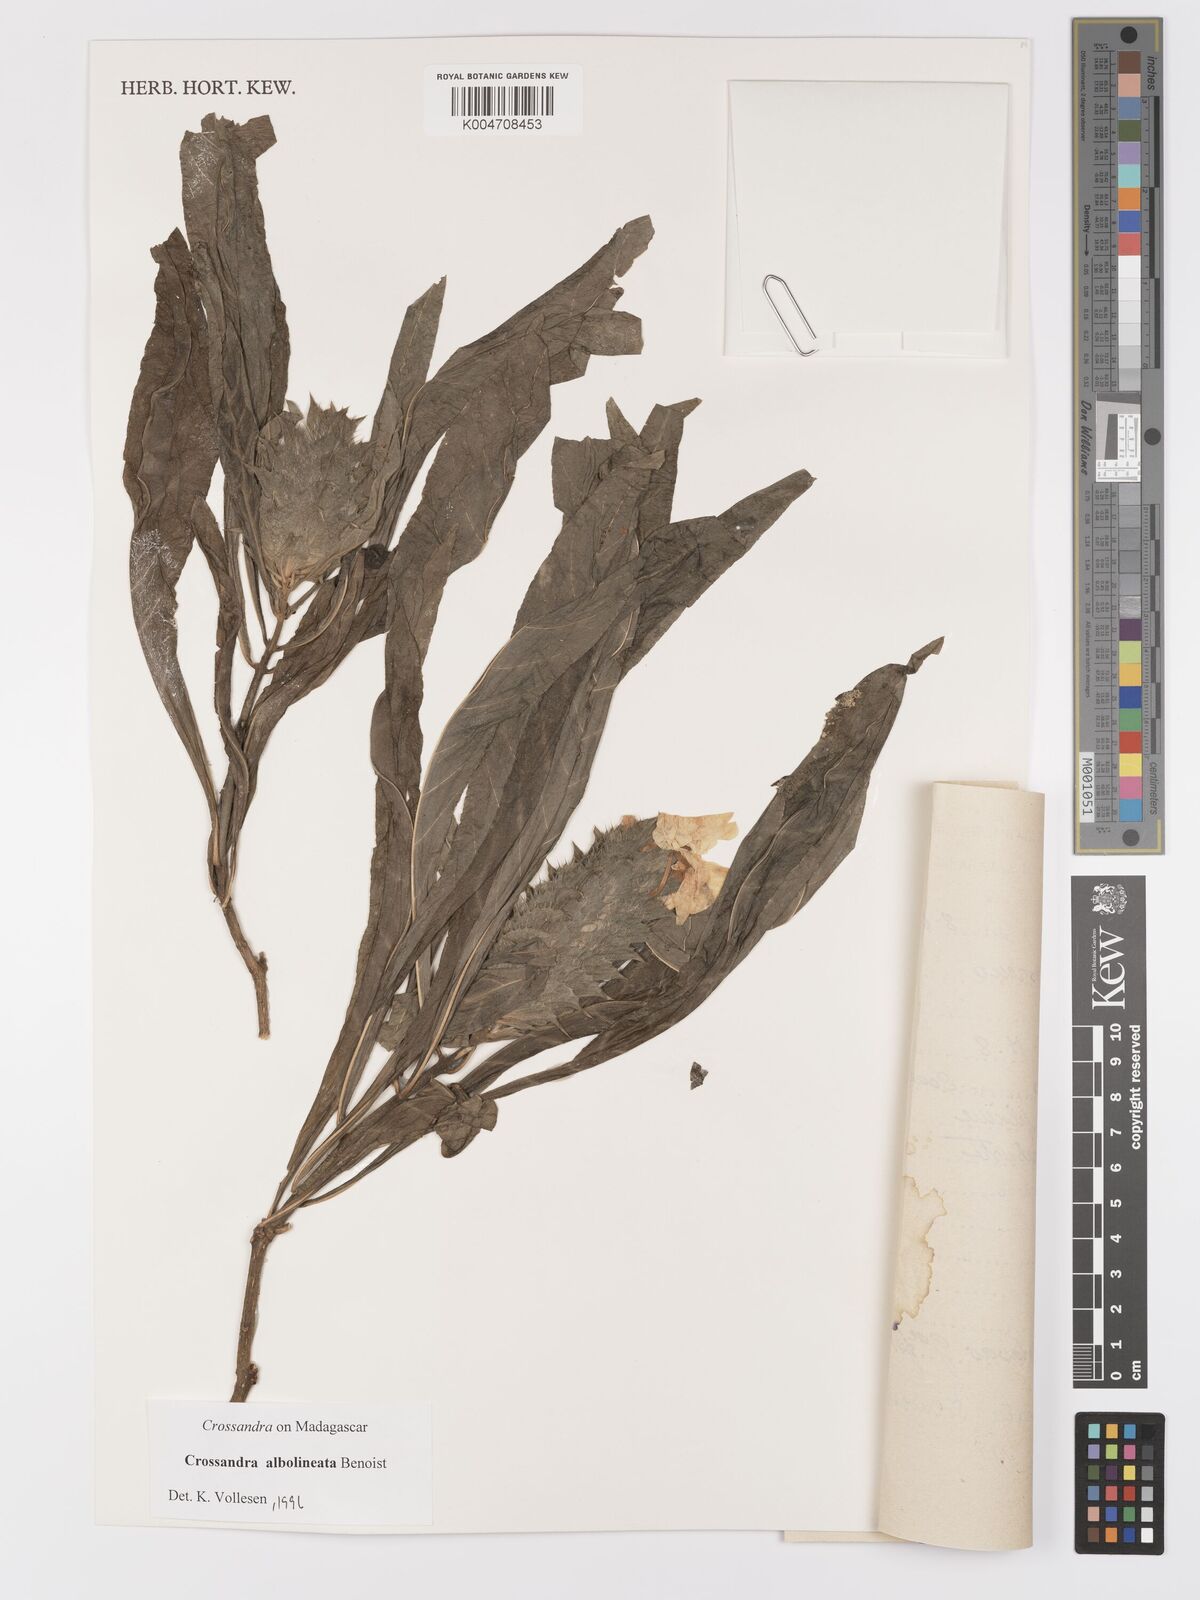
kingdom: Plantae
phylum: Tracheophyta
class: Magnoliopsida
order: Lamiales
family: Acanthaceae
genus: Crossandra
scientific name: Crossandra albolineata
